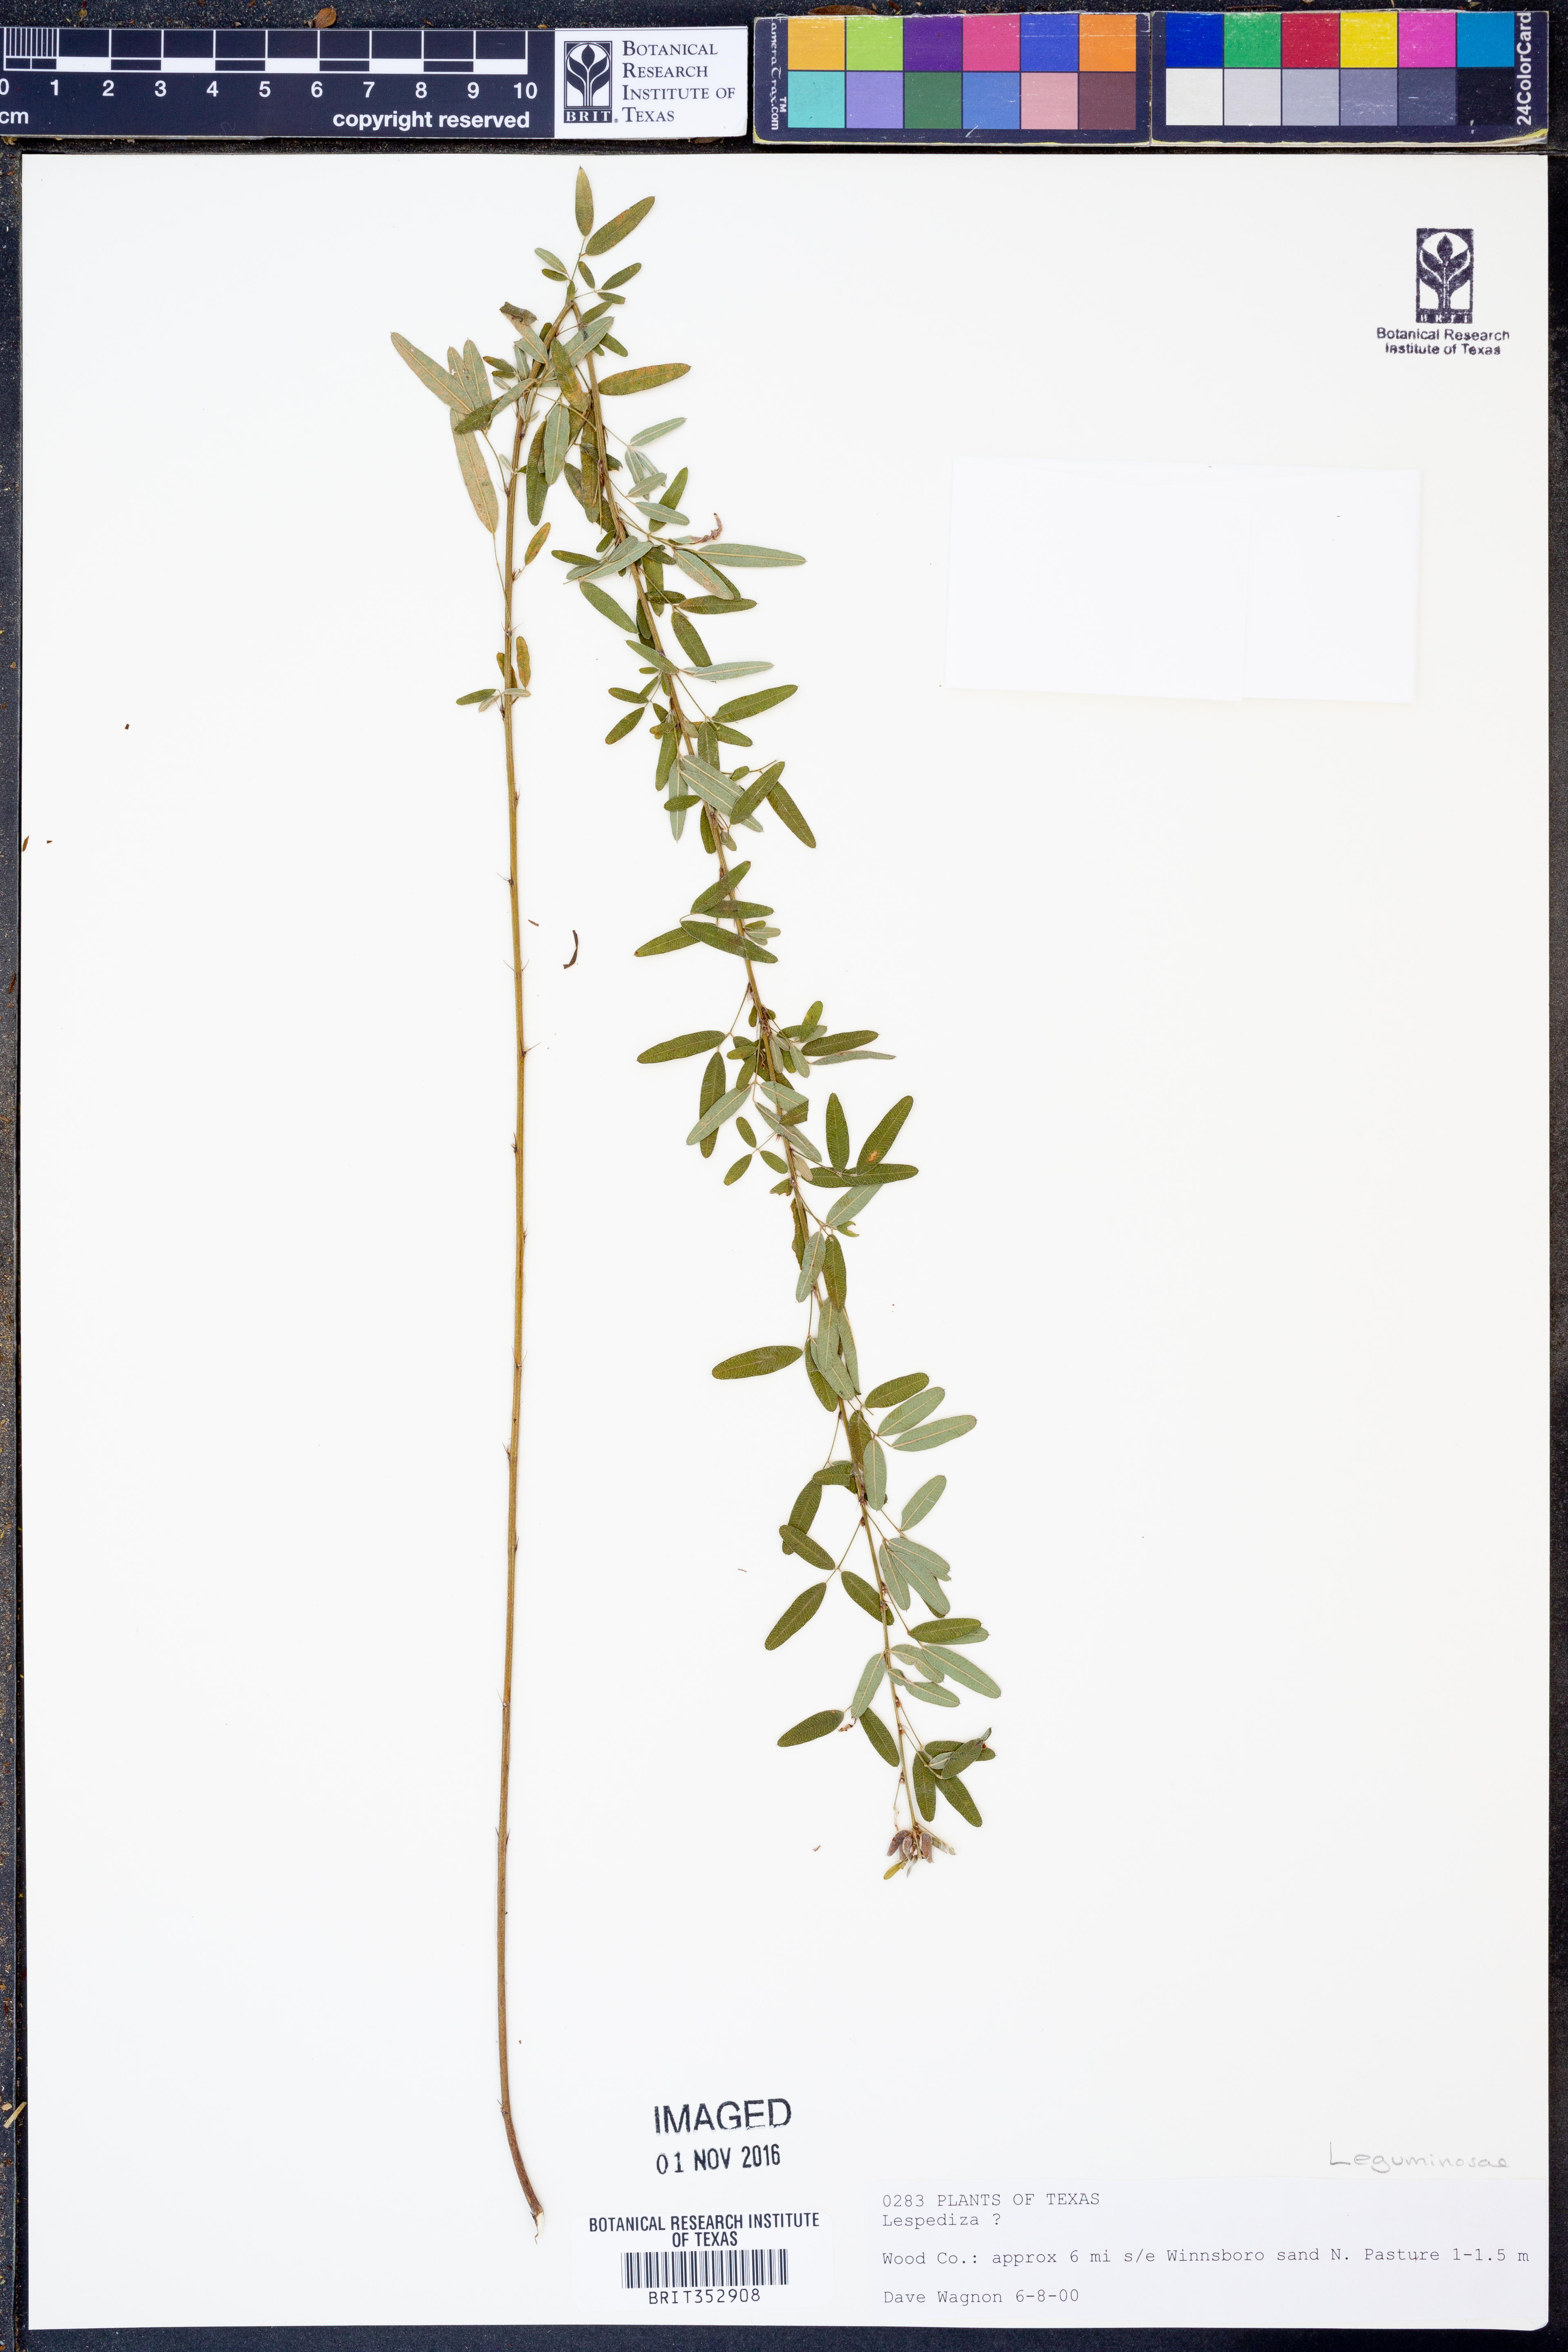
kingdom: Plantae
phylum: Tracheophyta
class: Magnoliopsida
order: Fabales
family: Fabaceae
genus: Lespedeza
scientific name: Lespedeza
